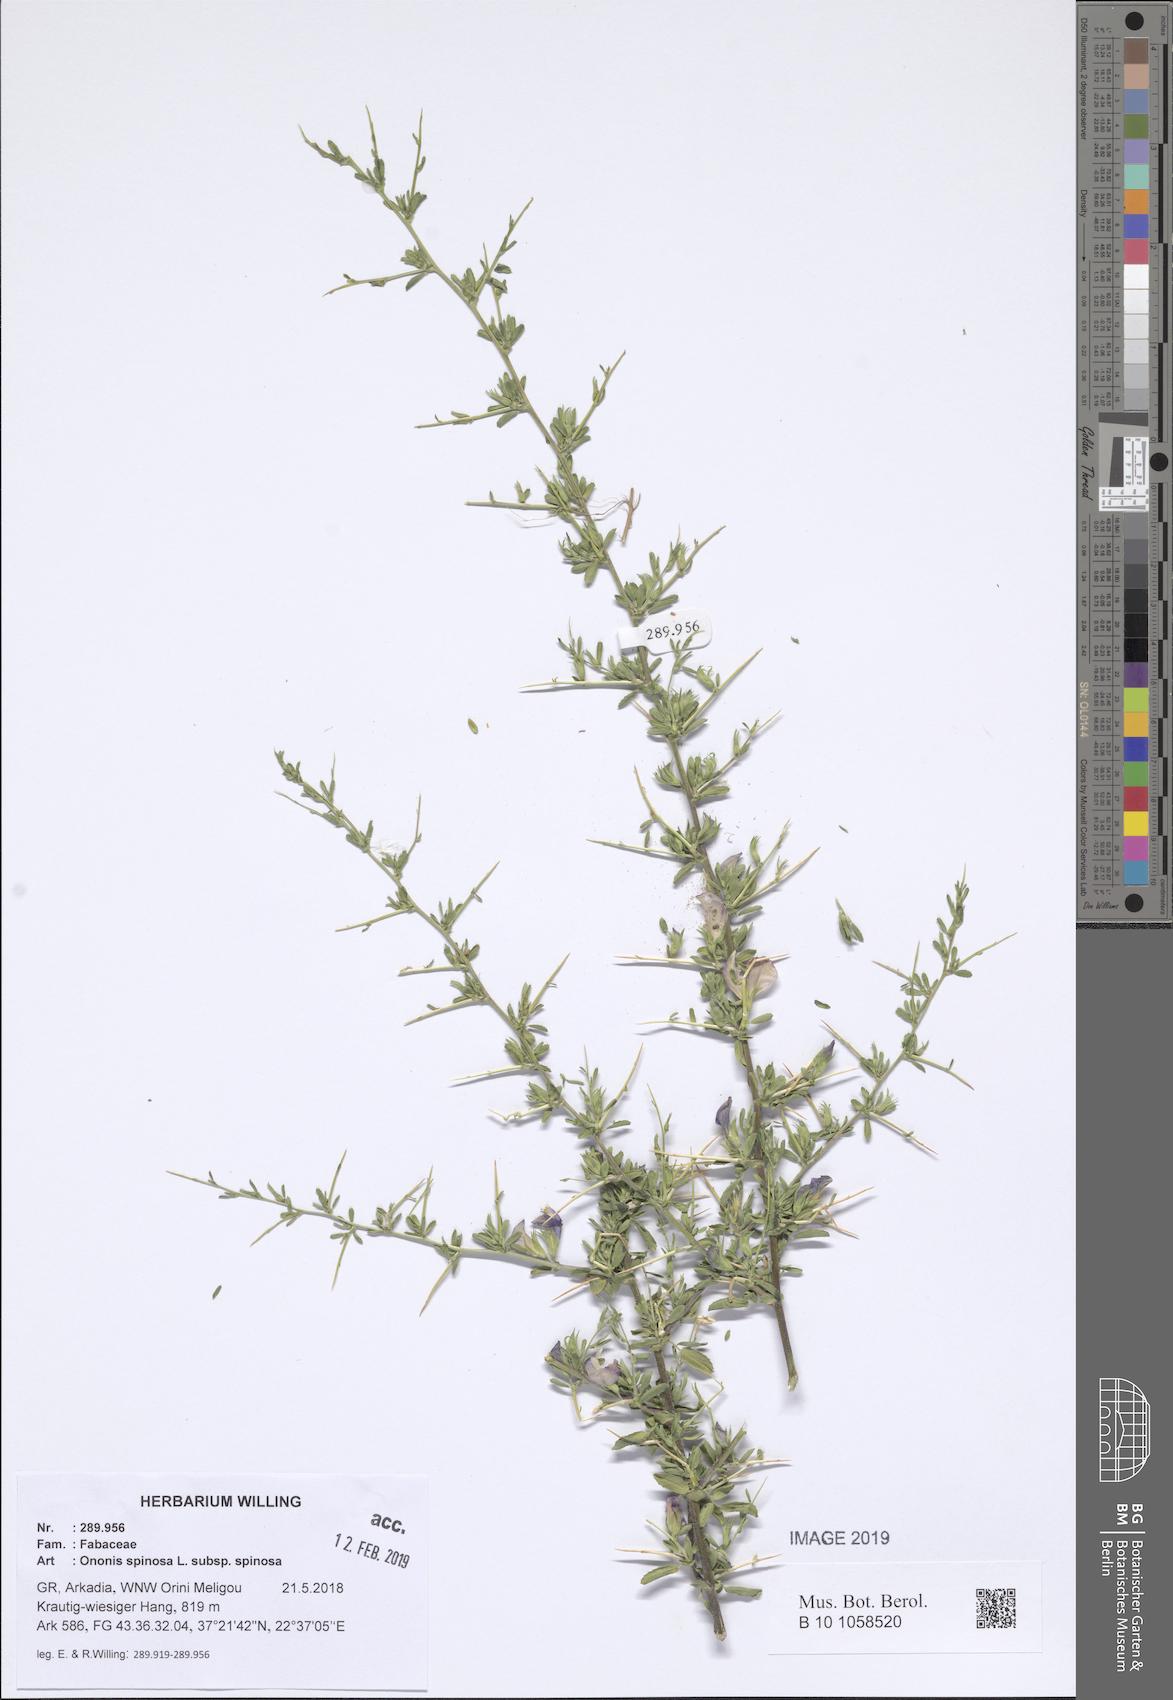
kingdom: Plantae
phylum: Tracheophyta
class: Magnoliopsida
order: Fabales
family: Fabaceae
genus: Ononis
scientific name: Ononis spinosa
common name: Spiny restharrow
